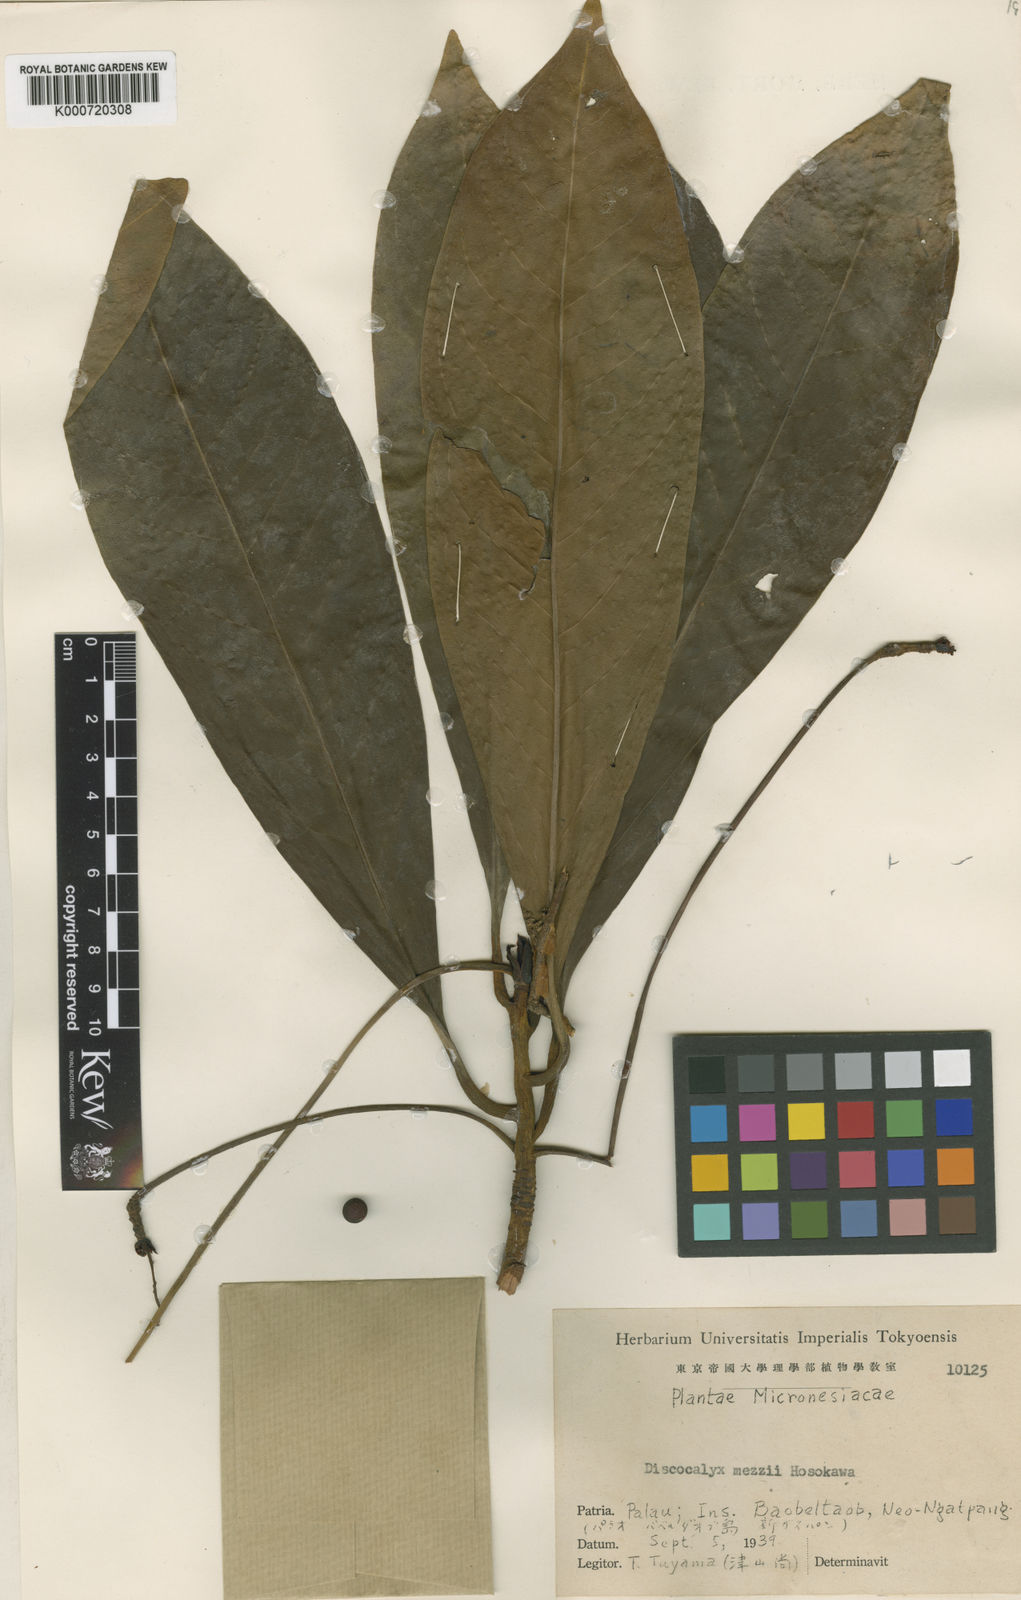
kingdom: Plantae
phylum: Tracheophyta
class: Magnoliopsida
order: Ericales
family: Primulaceae
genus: Discocalyx
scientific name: Discocalyx mezii
